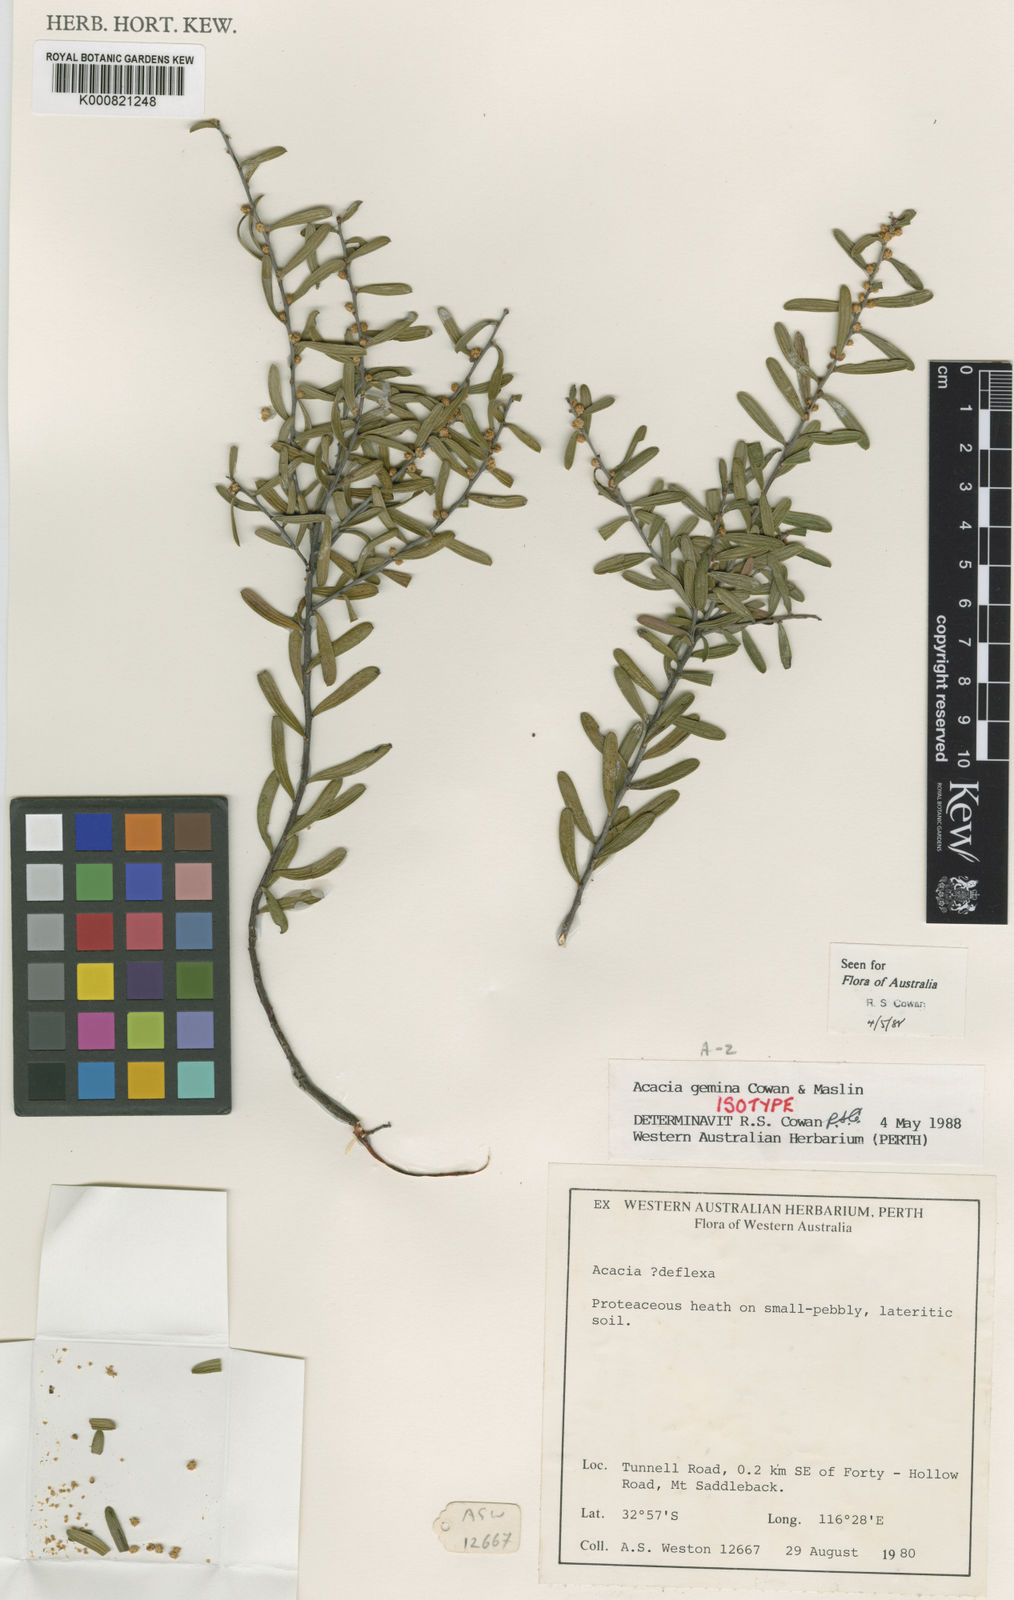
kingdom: Plantae
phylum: Tracheophyta
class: Magnoliopsida
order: Fabales
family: Fabaceae
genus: Acacia
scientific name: Acacia gemina
